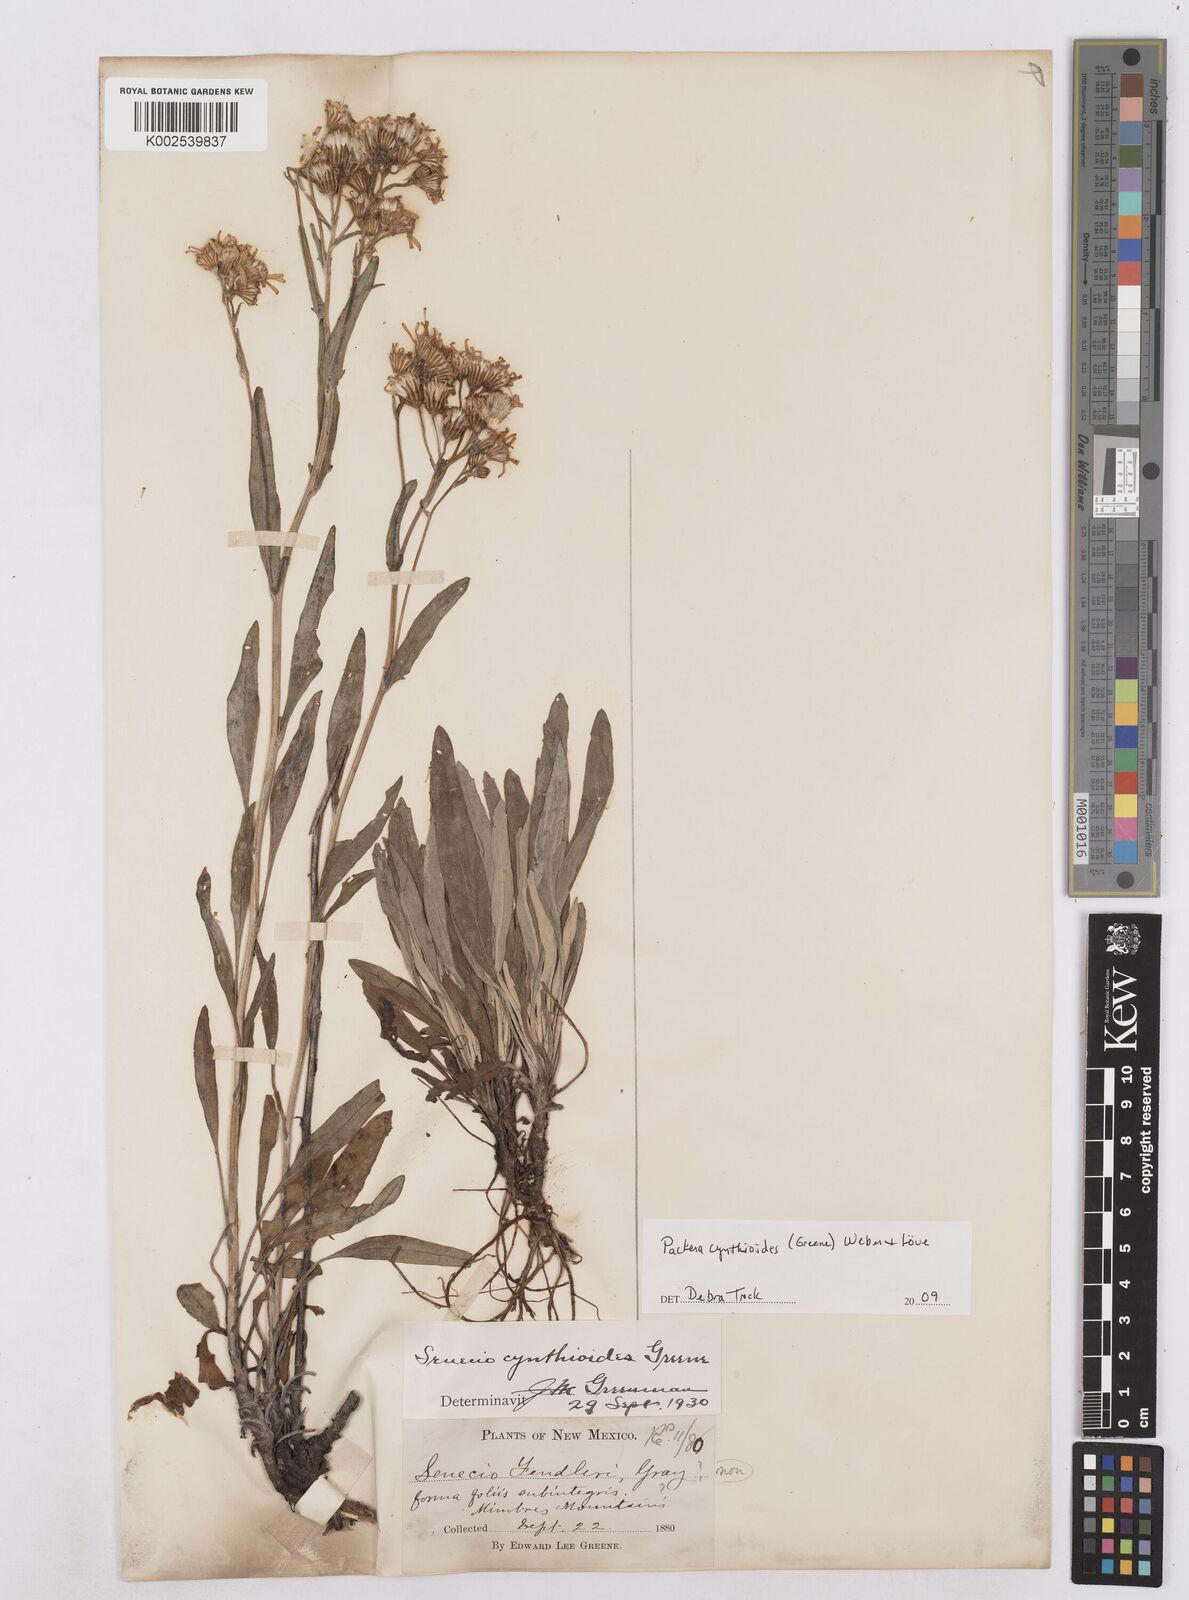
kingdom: Plantae
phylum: Tracheophyta
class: Magnoliopsida
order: Asterales
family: Asteraceae
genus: Packera
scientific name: Packera cynthioides
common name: Mountain ragwort
